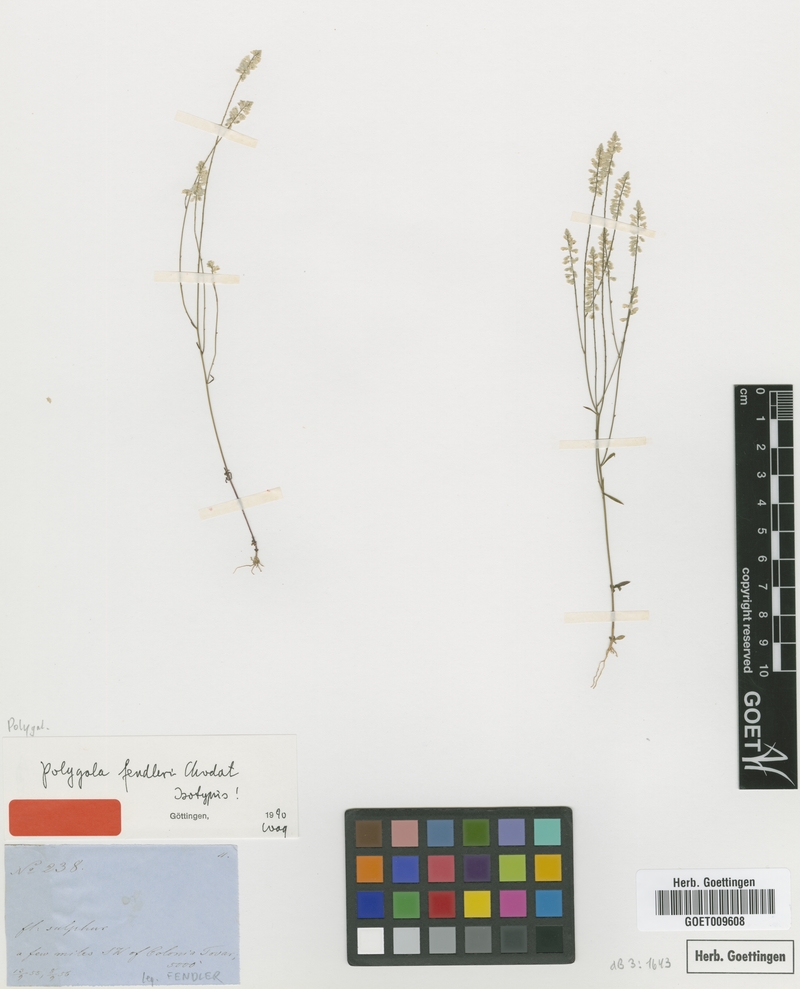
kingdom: Plantae
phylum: Tracheophyta
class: Magnoliopsida
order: Fabales
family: Polygalaceae
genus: Polygala
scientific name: Polygala fendleri
